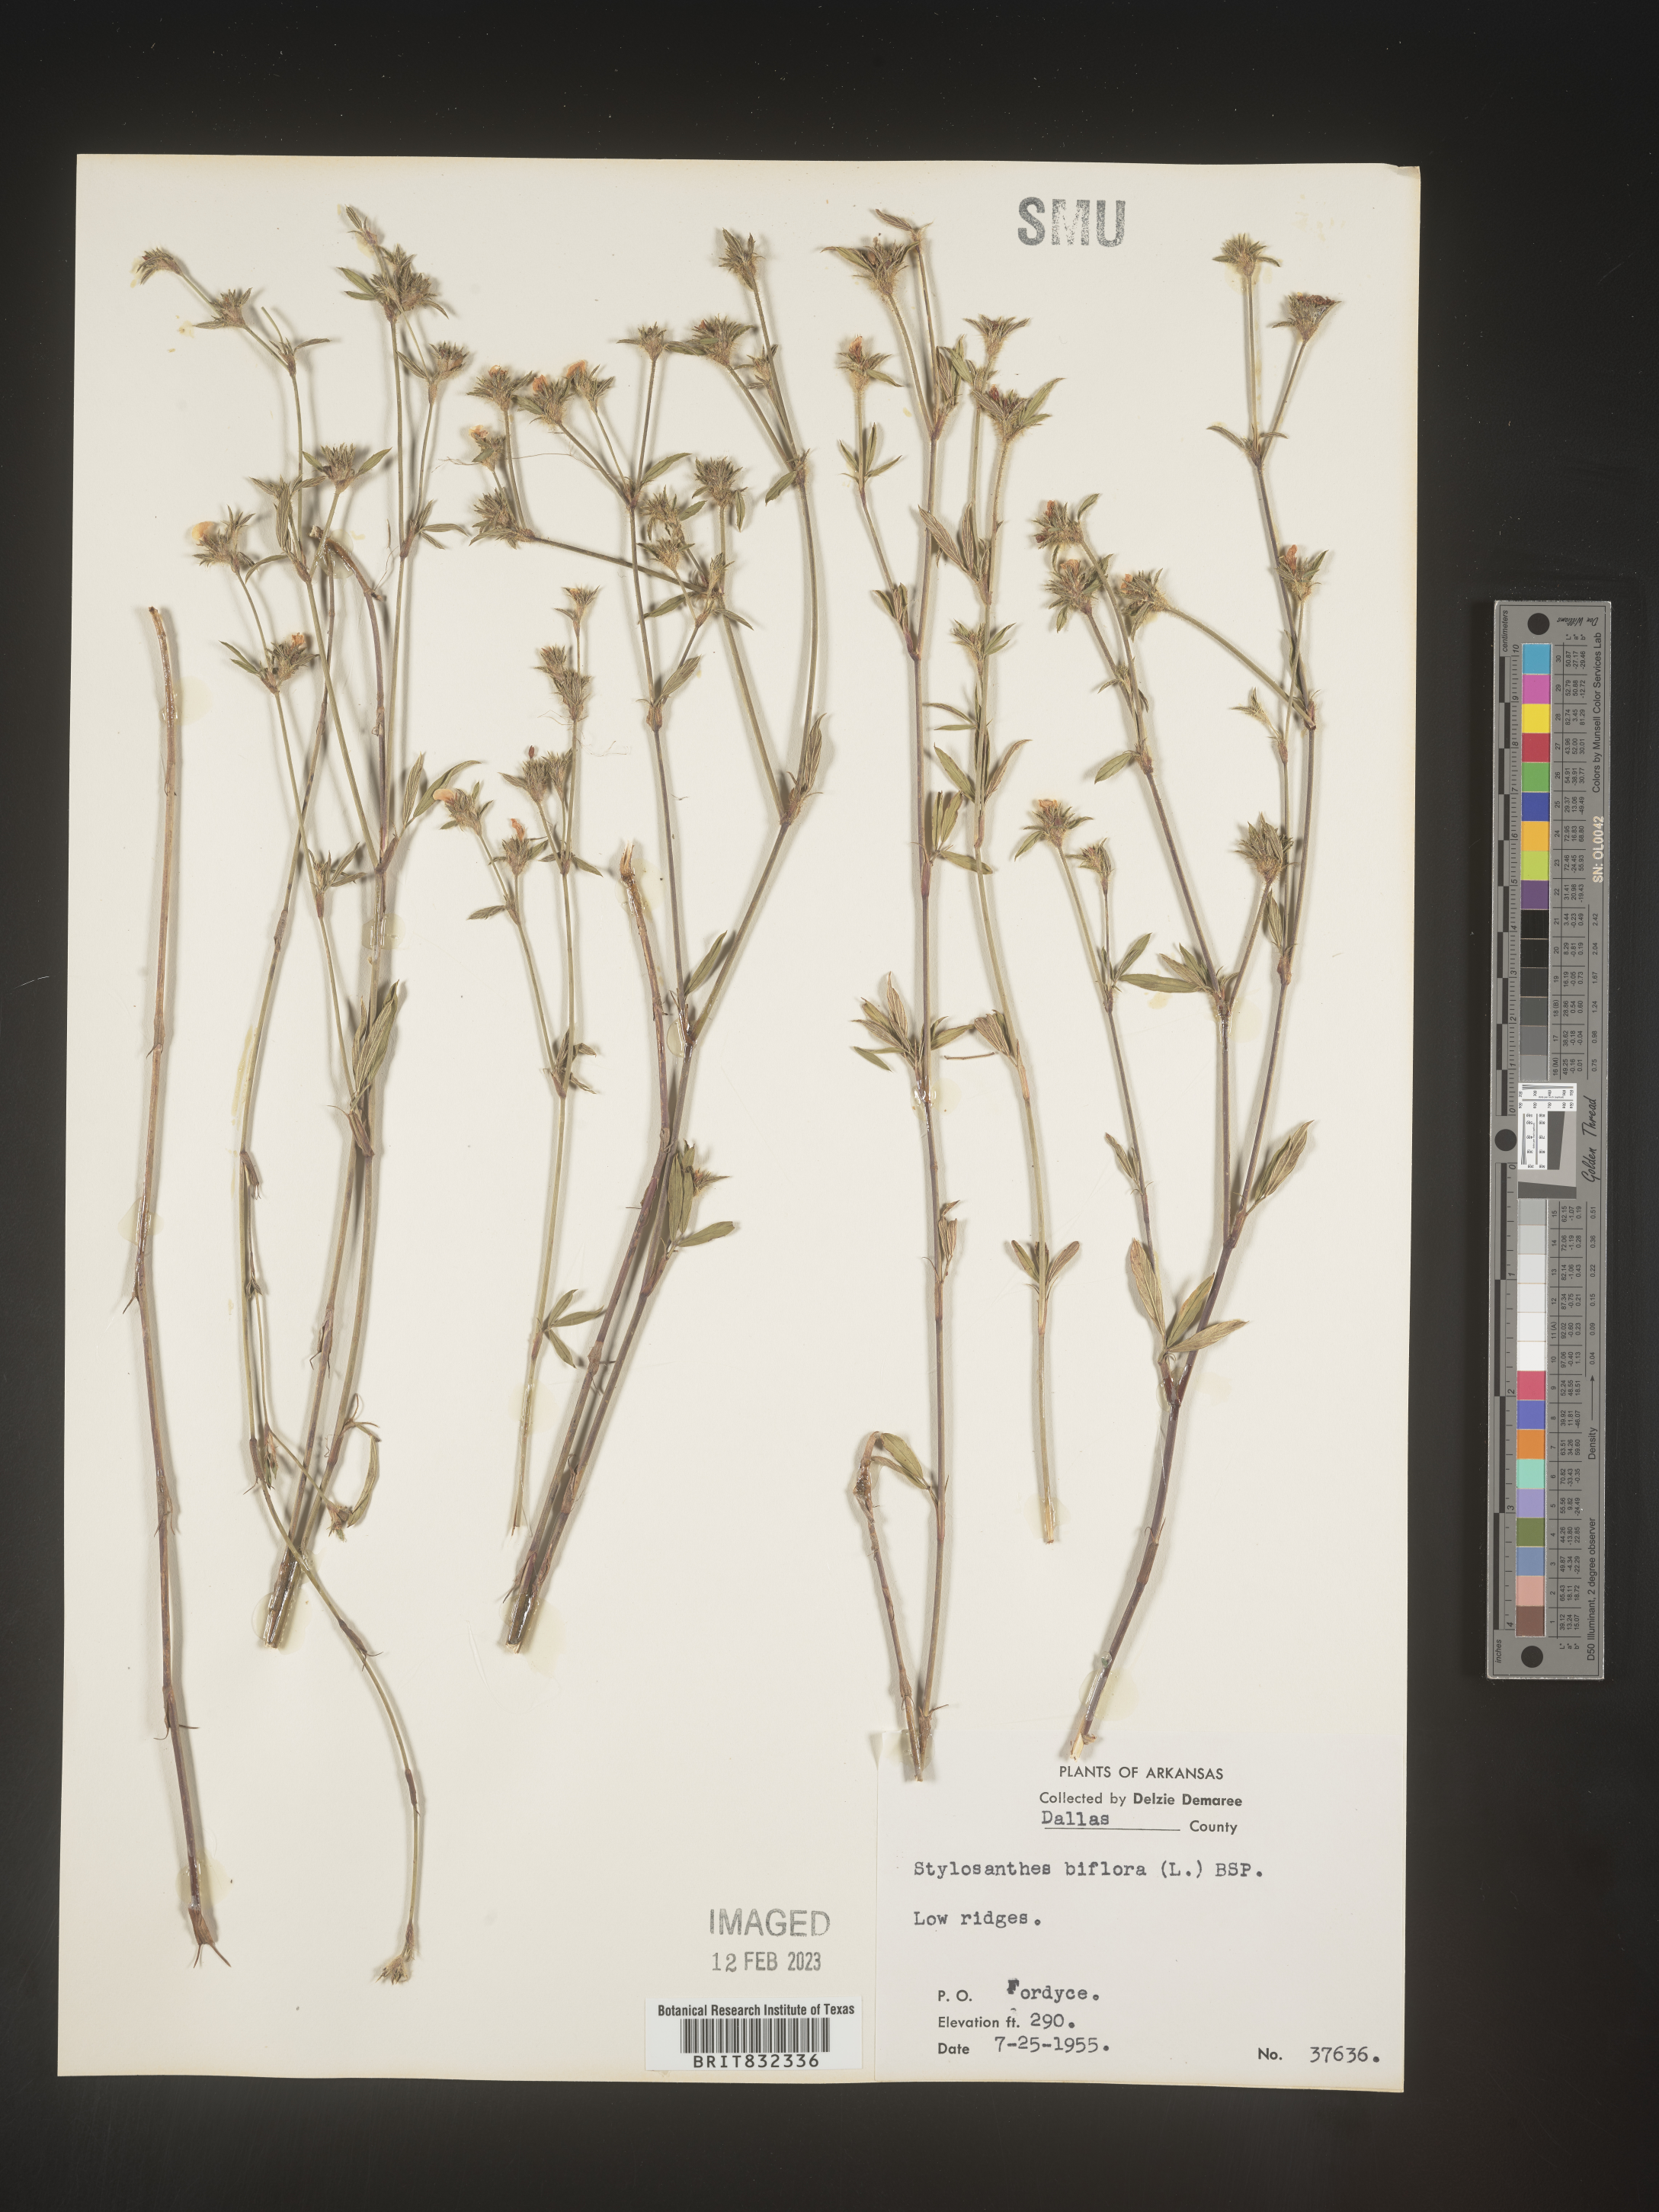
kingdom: Plantae
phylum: Tracheophyta
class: Magnoliopsida
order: Fabales
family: Fabaceae
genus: Stylosanthes
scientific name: Stylosanthes biflora
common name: Two-flower pencil-flower
